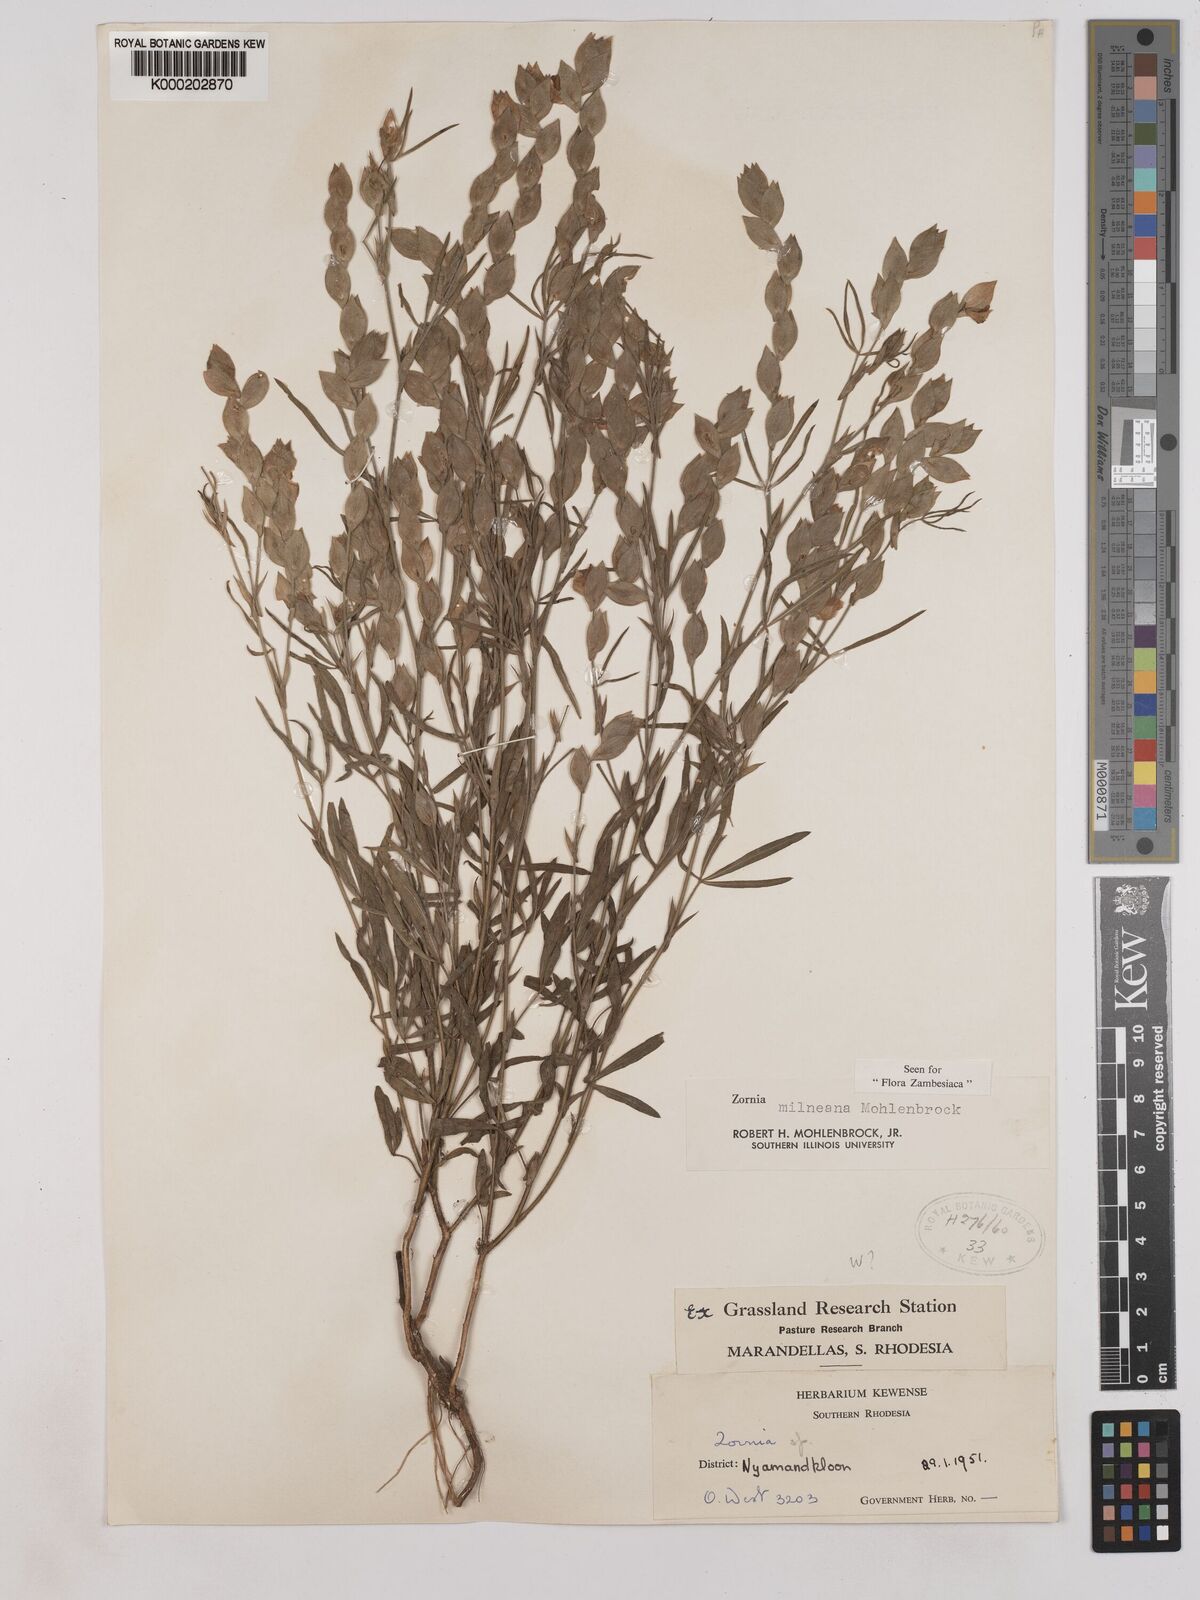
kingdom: Plantae
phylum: Tracheophyta
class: Magnoliopsida
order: Fabales
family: Fabaceae
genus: Zornia
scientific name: Zornia milneana
